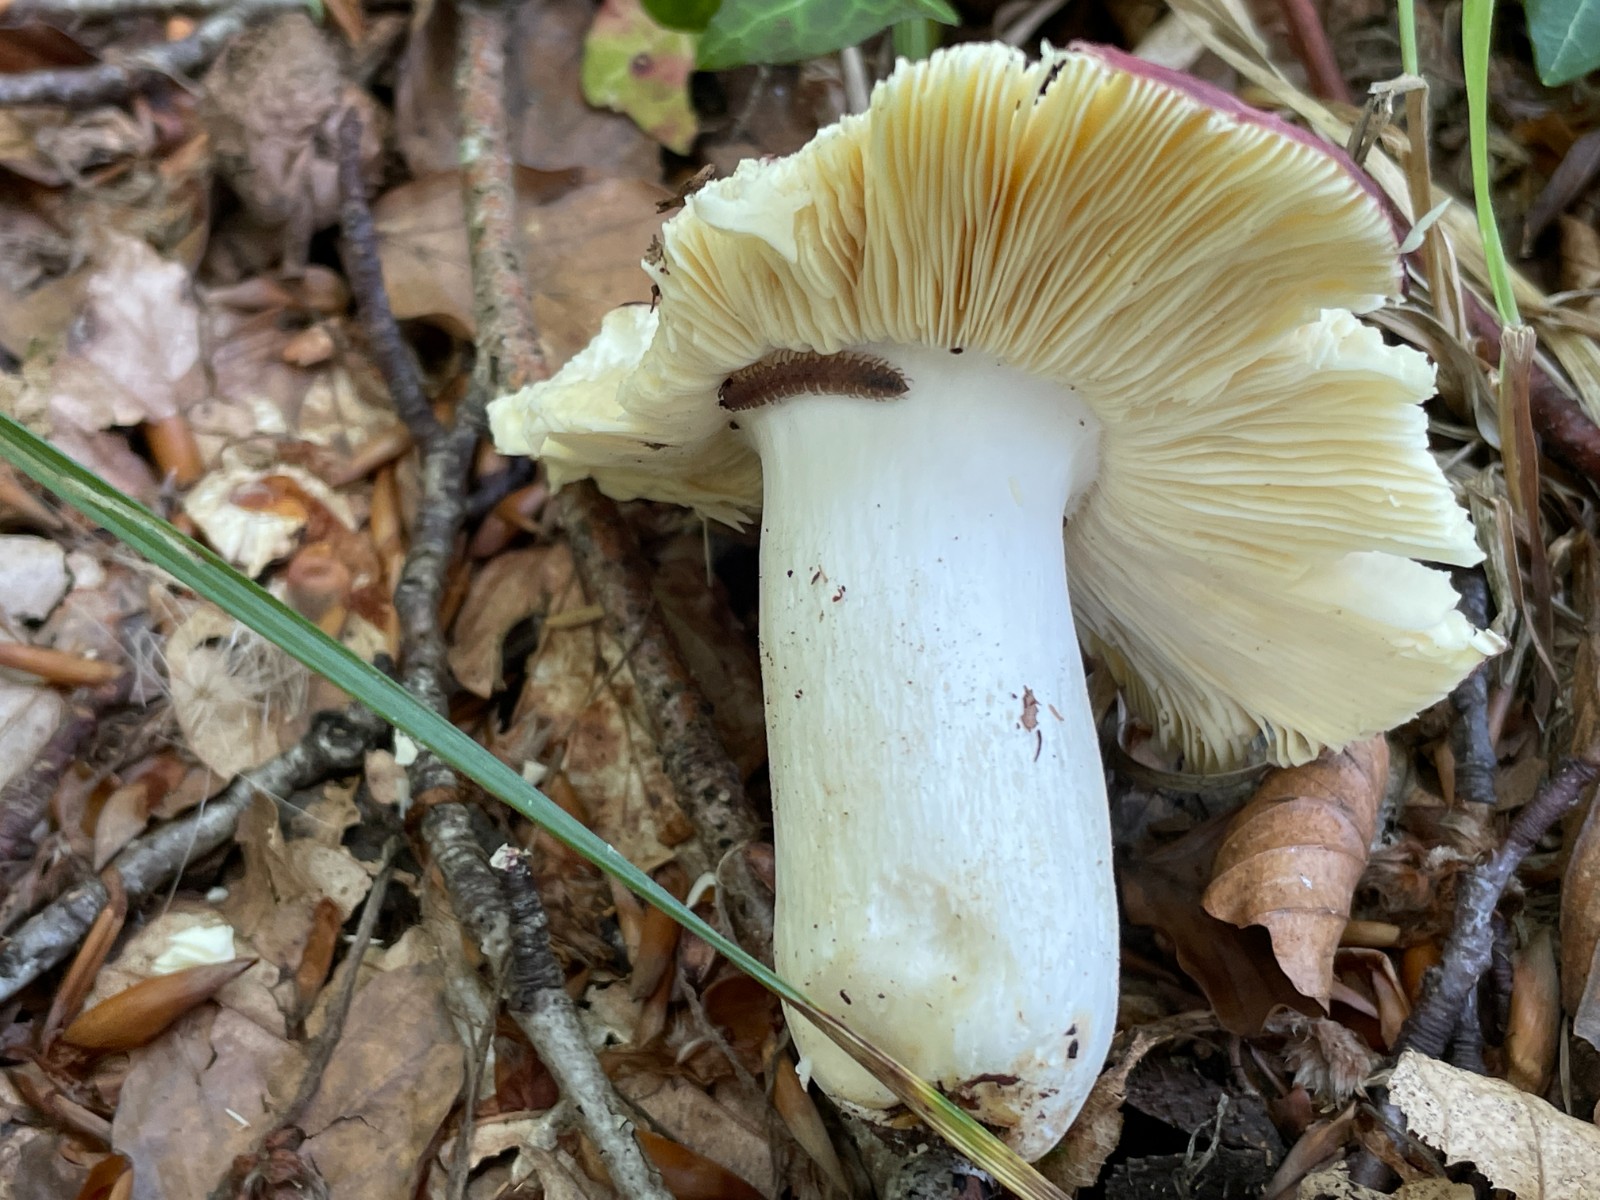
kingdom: Fungi
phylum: Basidiomycota
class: Agaricomycetes
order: Russulales
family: Russulaceae
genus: Russula
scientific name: Russula romellii
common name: romells skørhat
